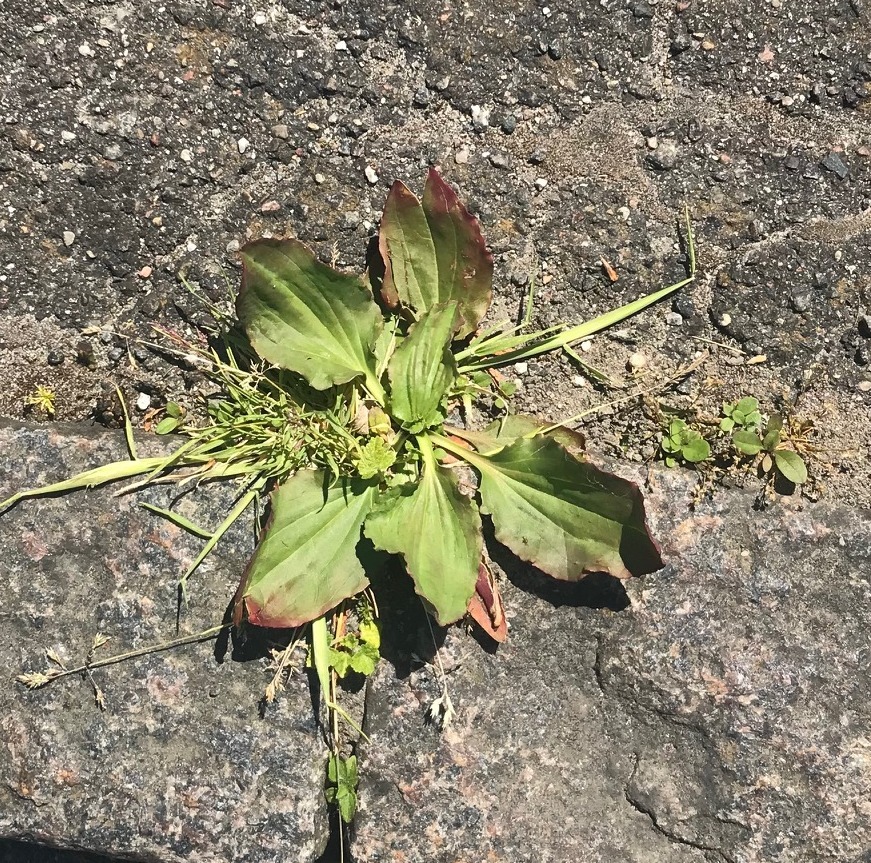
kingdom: Plantae
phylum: Tracheophyta
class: Magnoliopsida
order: Lamiales
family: Plantaginaceae
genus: Plantago
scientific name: Plantago major
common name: Glat vejbred
